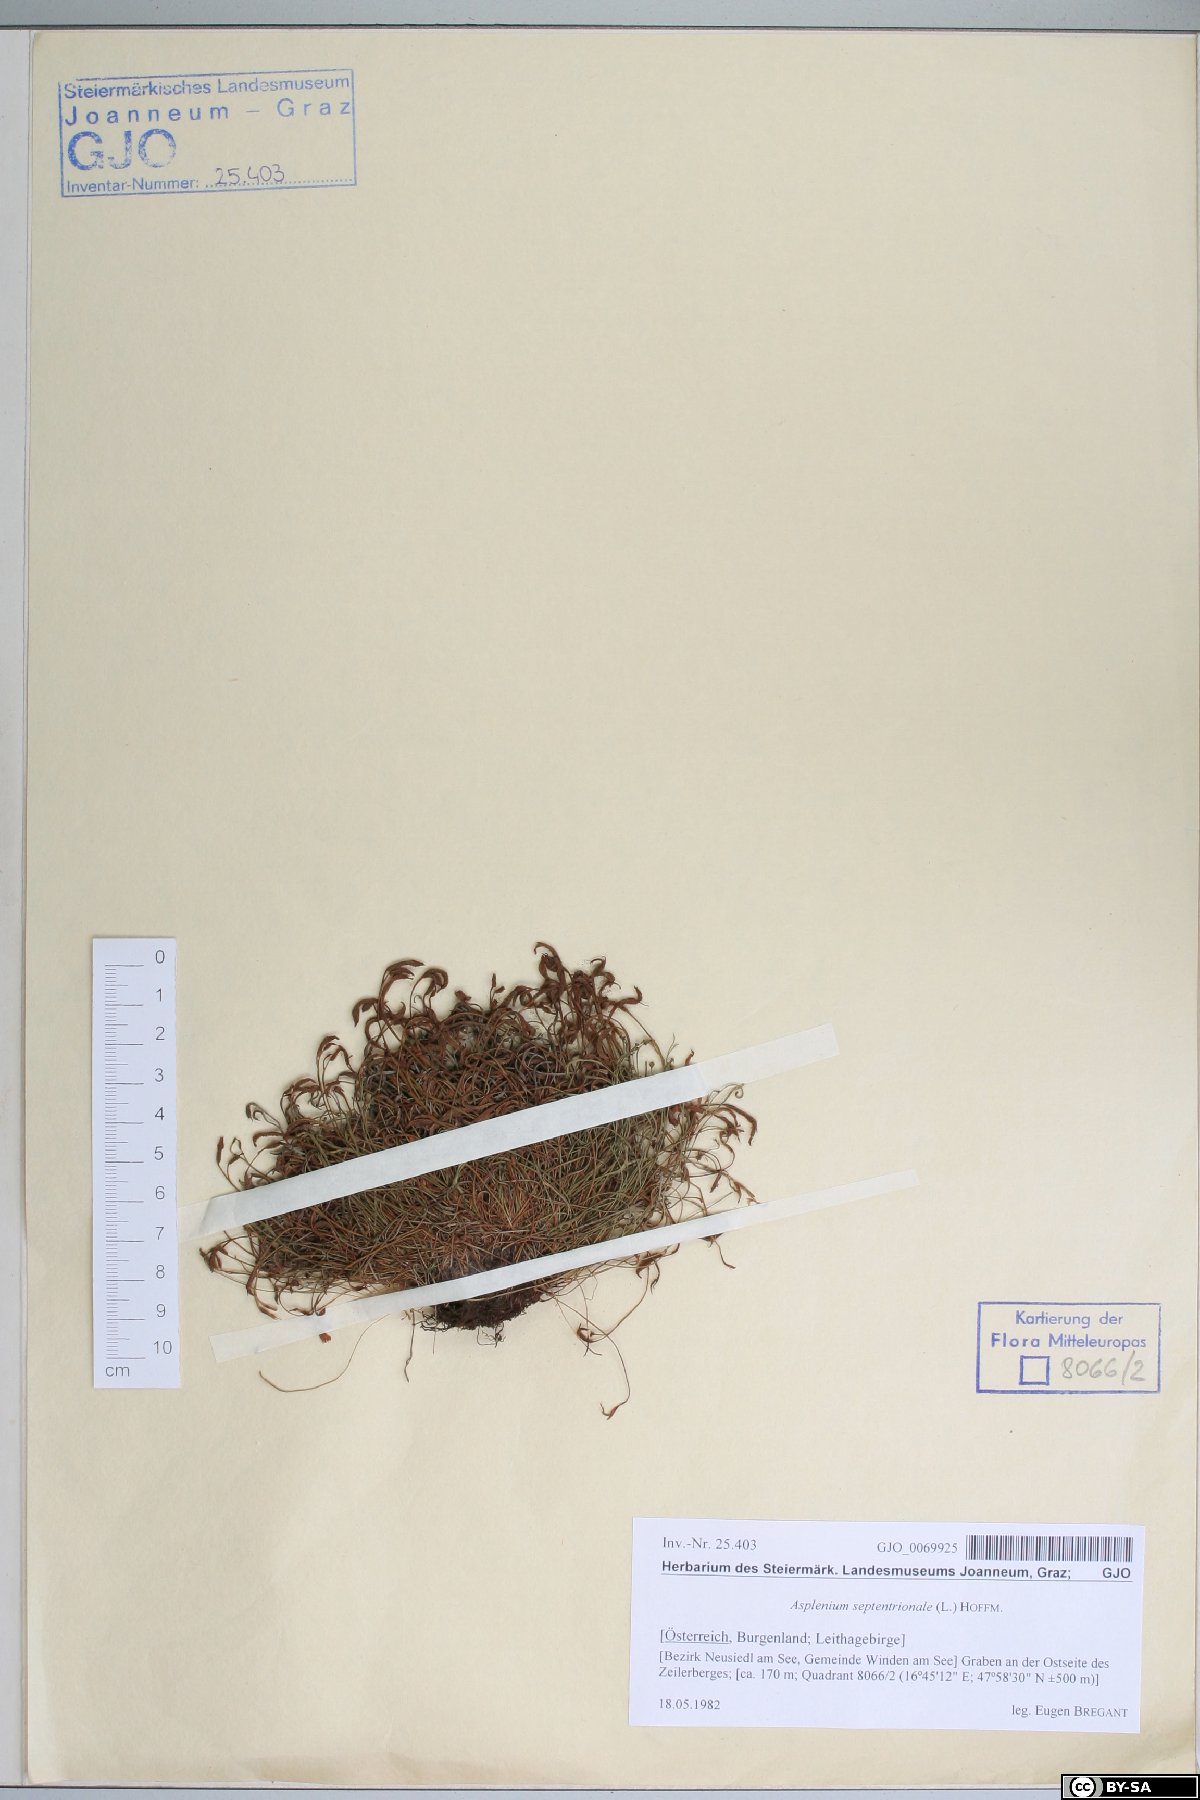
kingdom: Plantae
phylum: Tracheophyta
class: Polypodiopsida
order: Polypodiales
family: Aspleniaceae
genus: Asplenium
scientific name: Asplenium septentrionale
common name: Forked spleenwort
